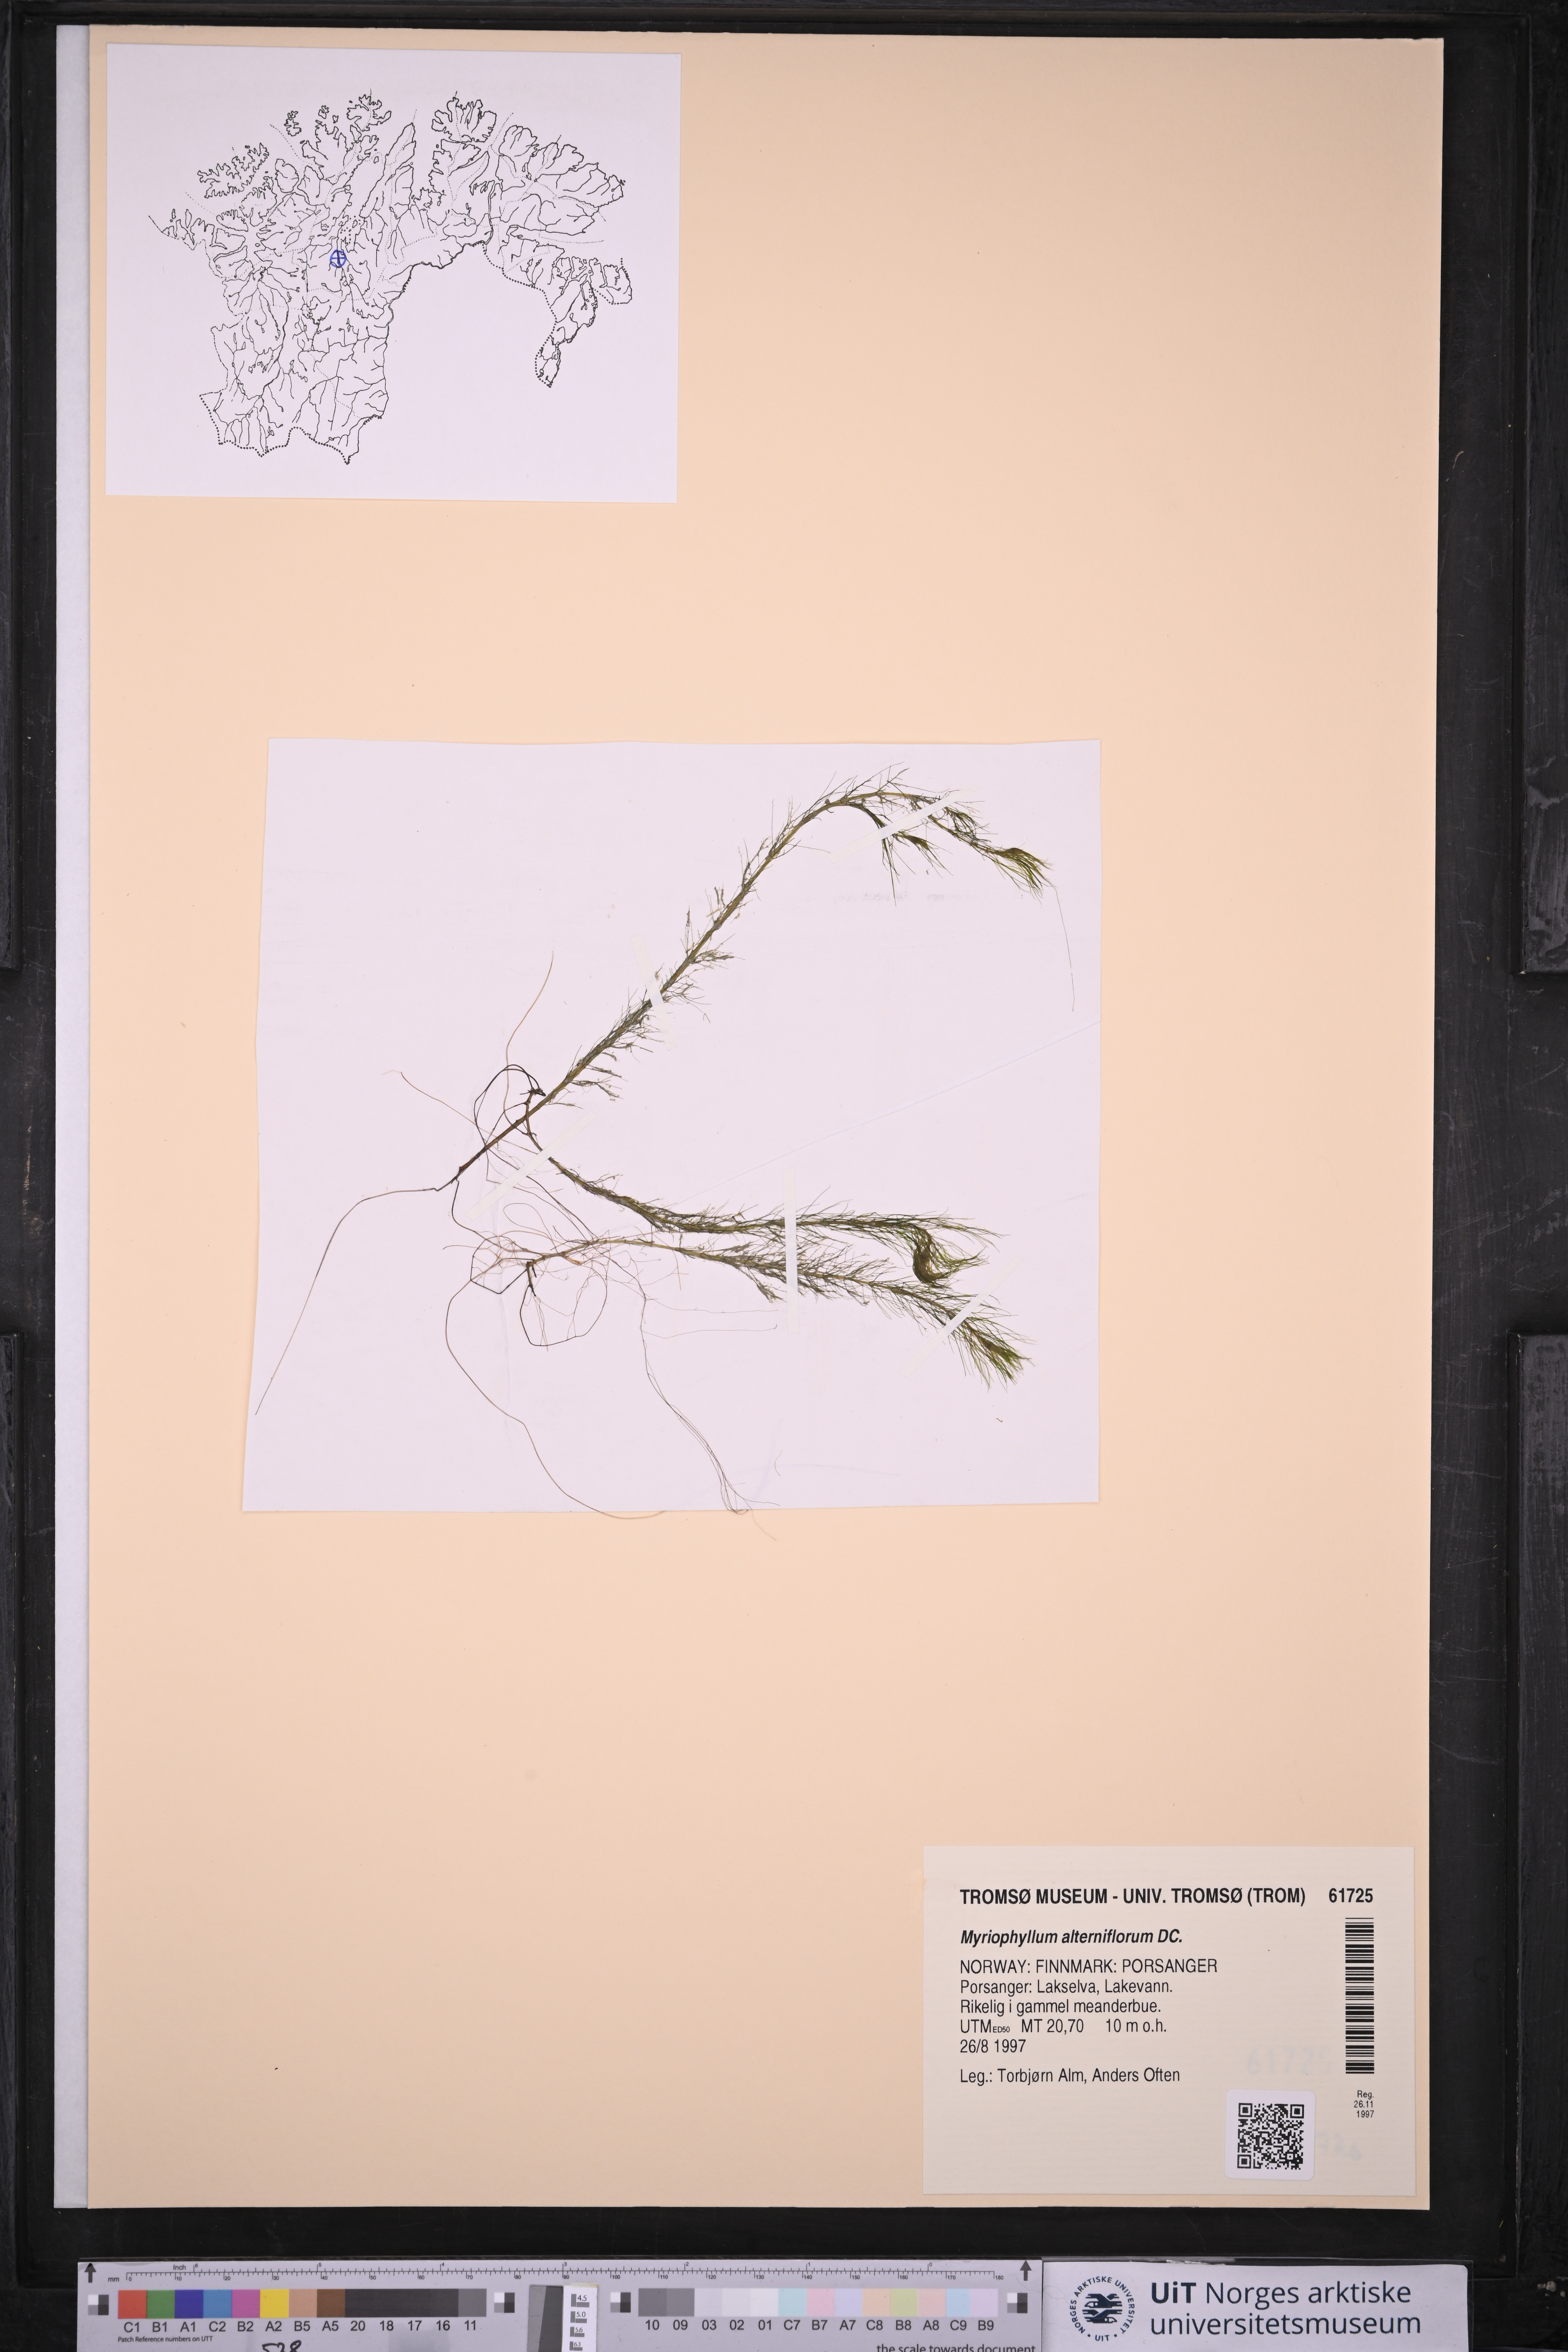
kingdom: Plantae
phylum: Tracheophyta
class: Magnoliopsida
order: Saxifragales
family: Haloragaceae
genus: Myriophyllum
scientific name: Myriophyllum alterniflorum
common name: Alternate water-milfoil
